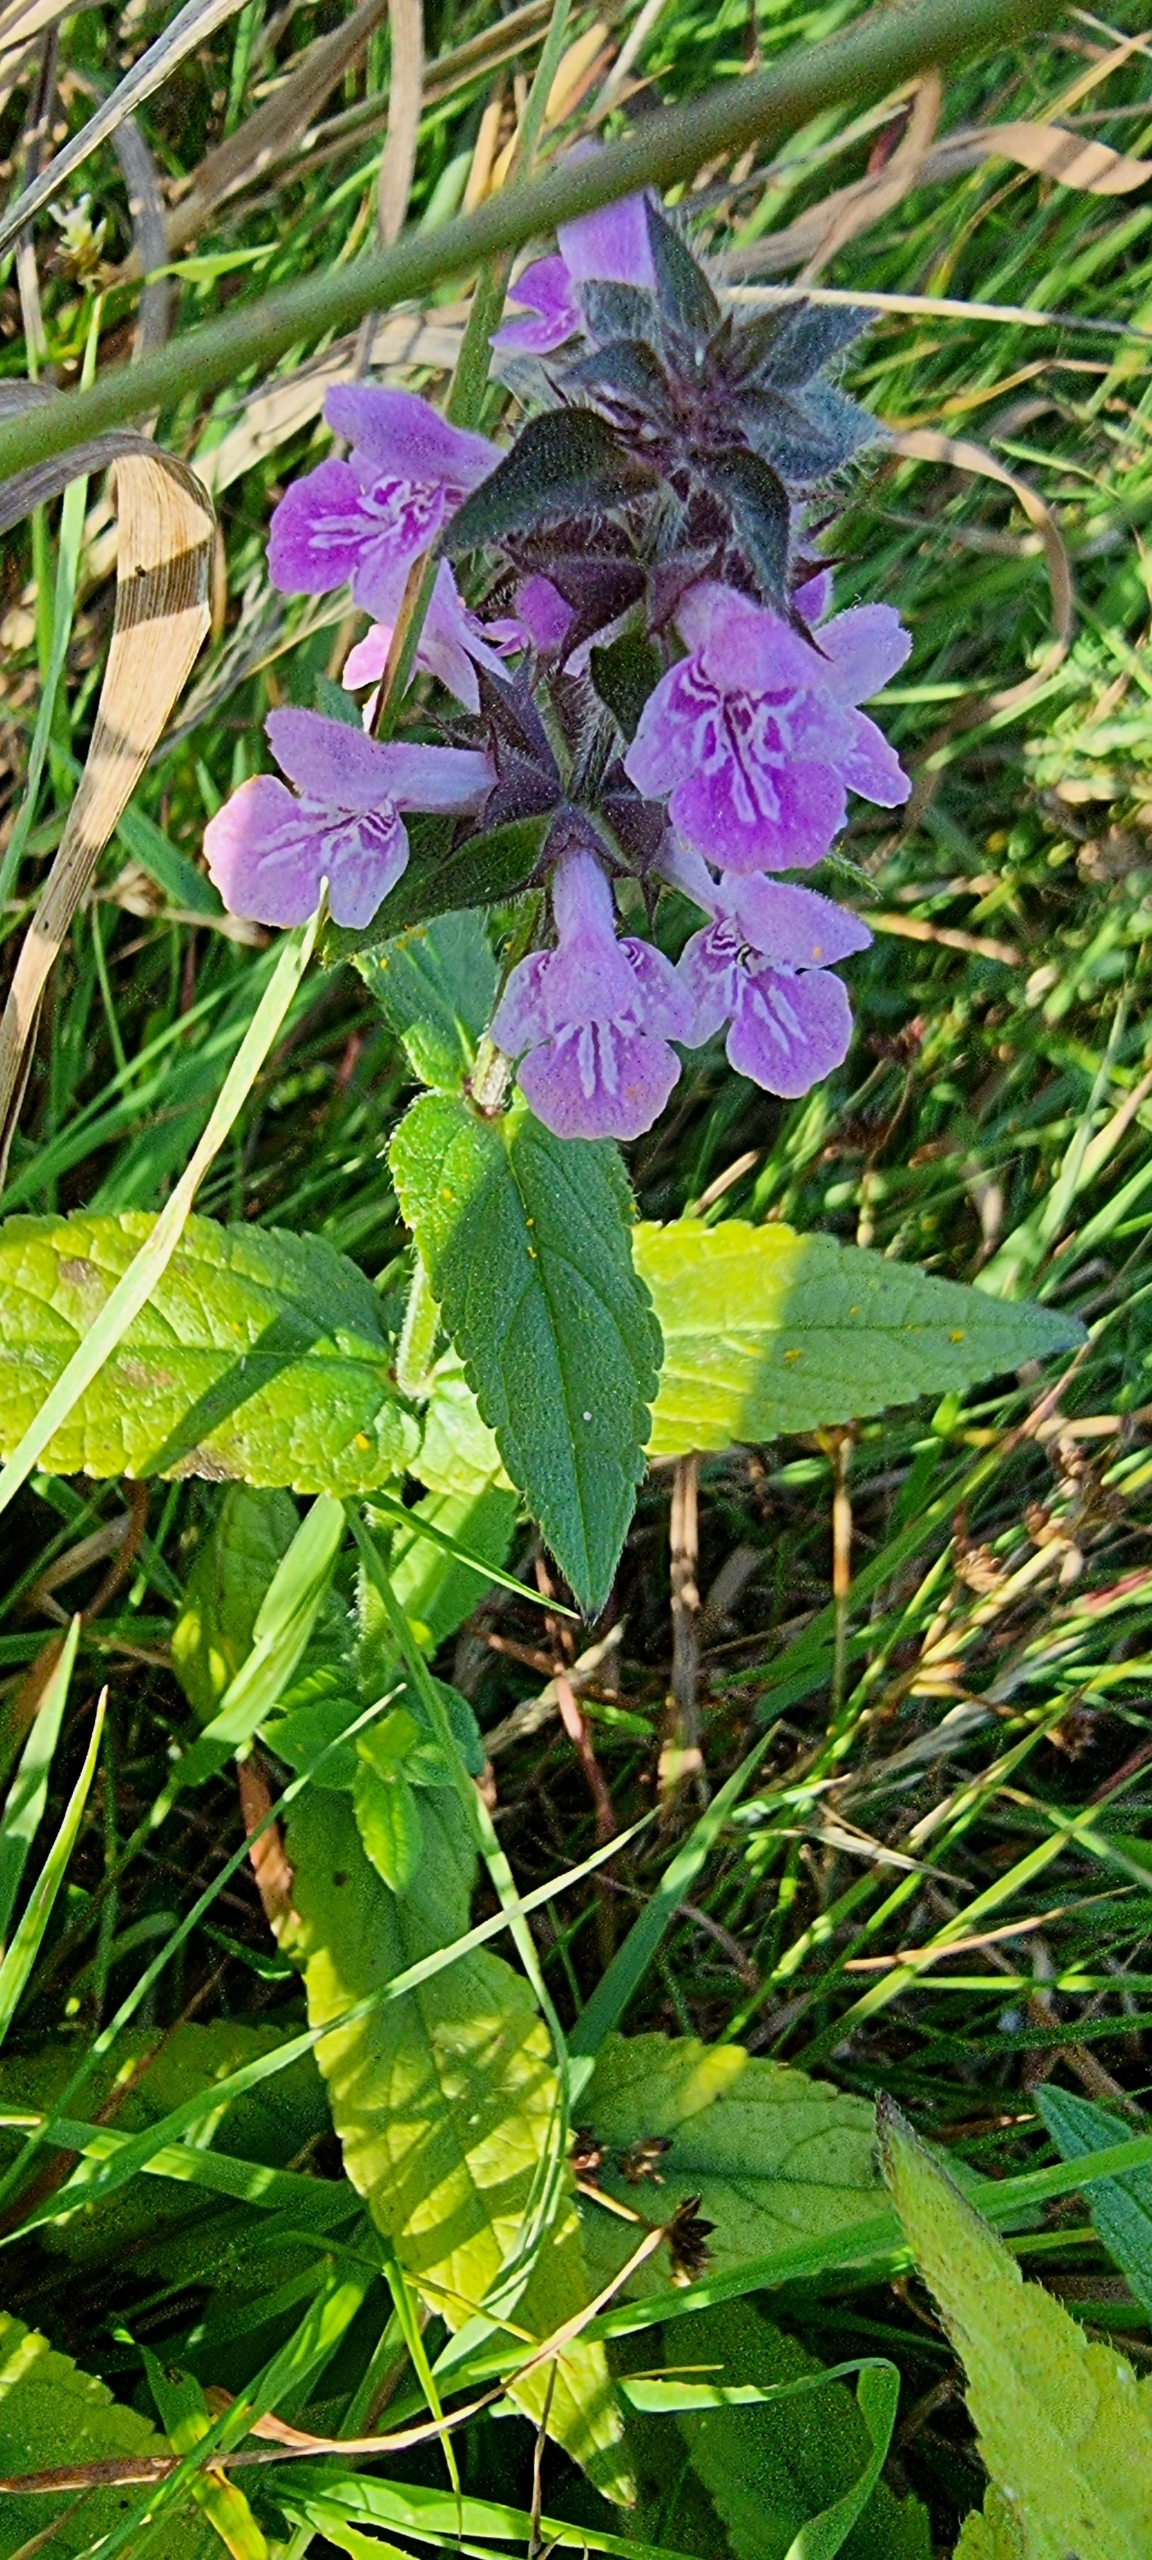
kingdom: Plantae
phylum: Tracheophyta
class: Magnoliopsida
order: Lamiales
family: Lamiaceae
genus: Stachys
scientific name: Stachys palustris
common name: Kær-galtetand
